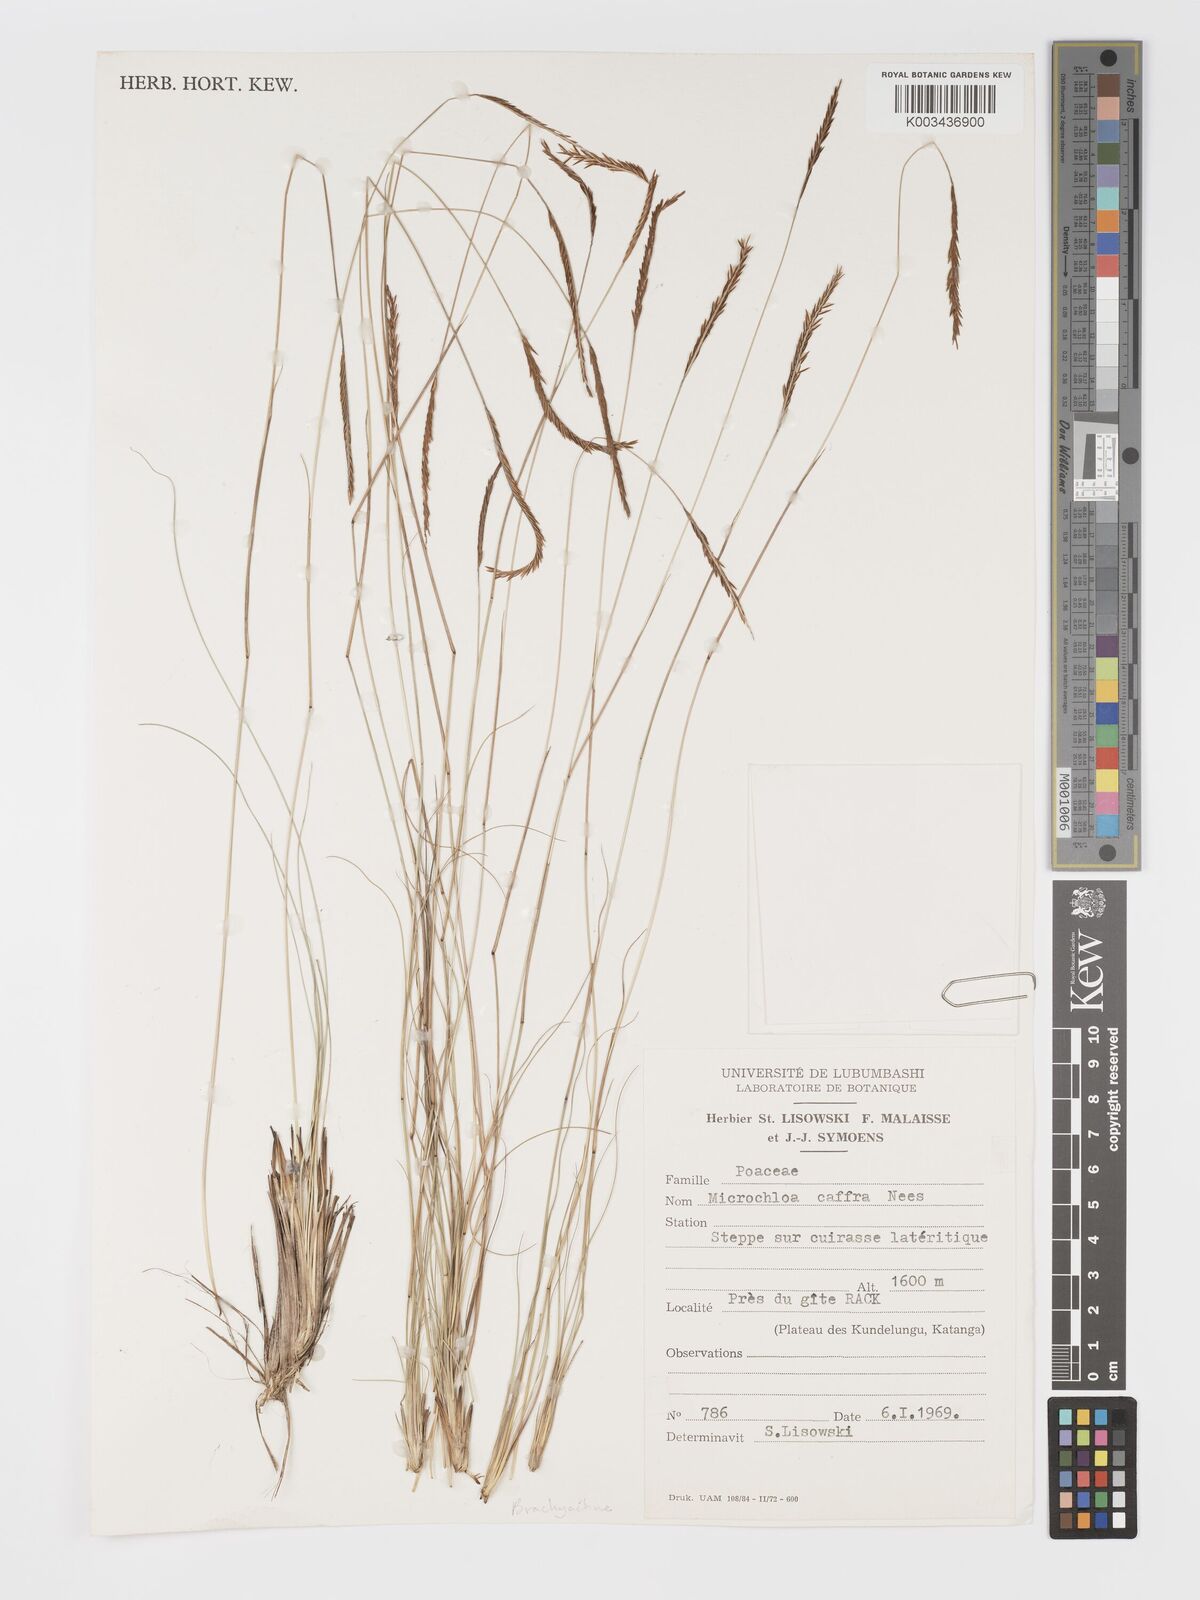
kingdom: Plantae
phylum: Tracheophyta
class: Liliopsida
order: Poales
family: Poaceae
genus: Micrachne
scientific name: Micrachne fulva
